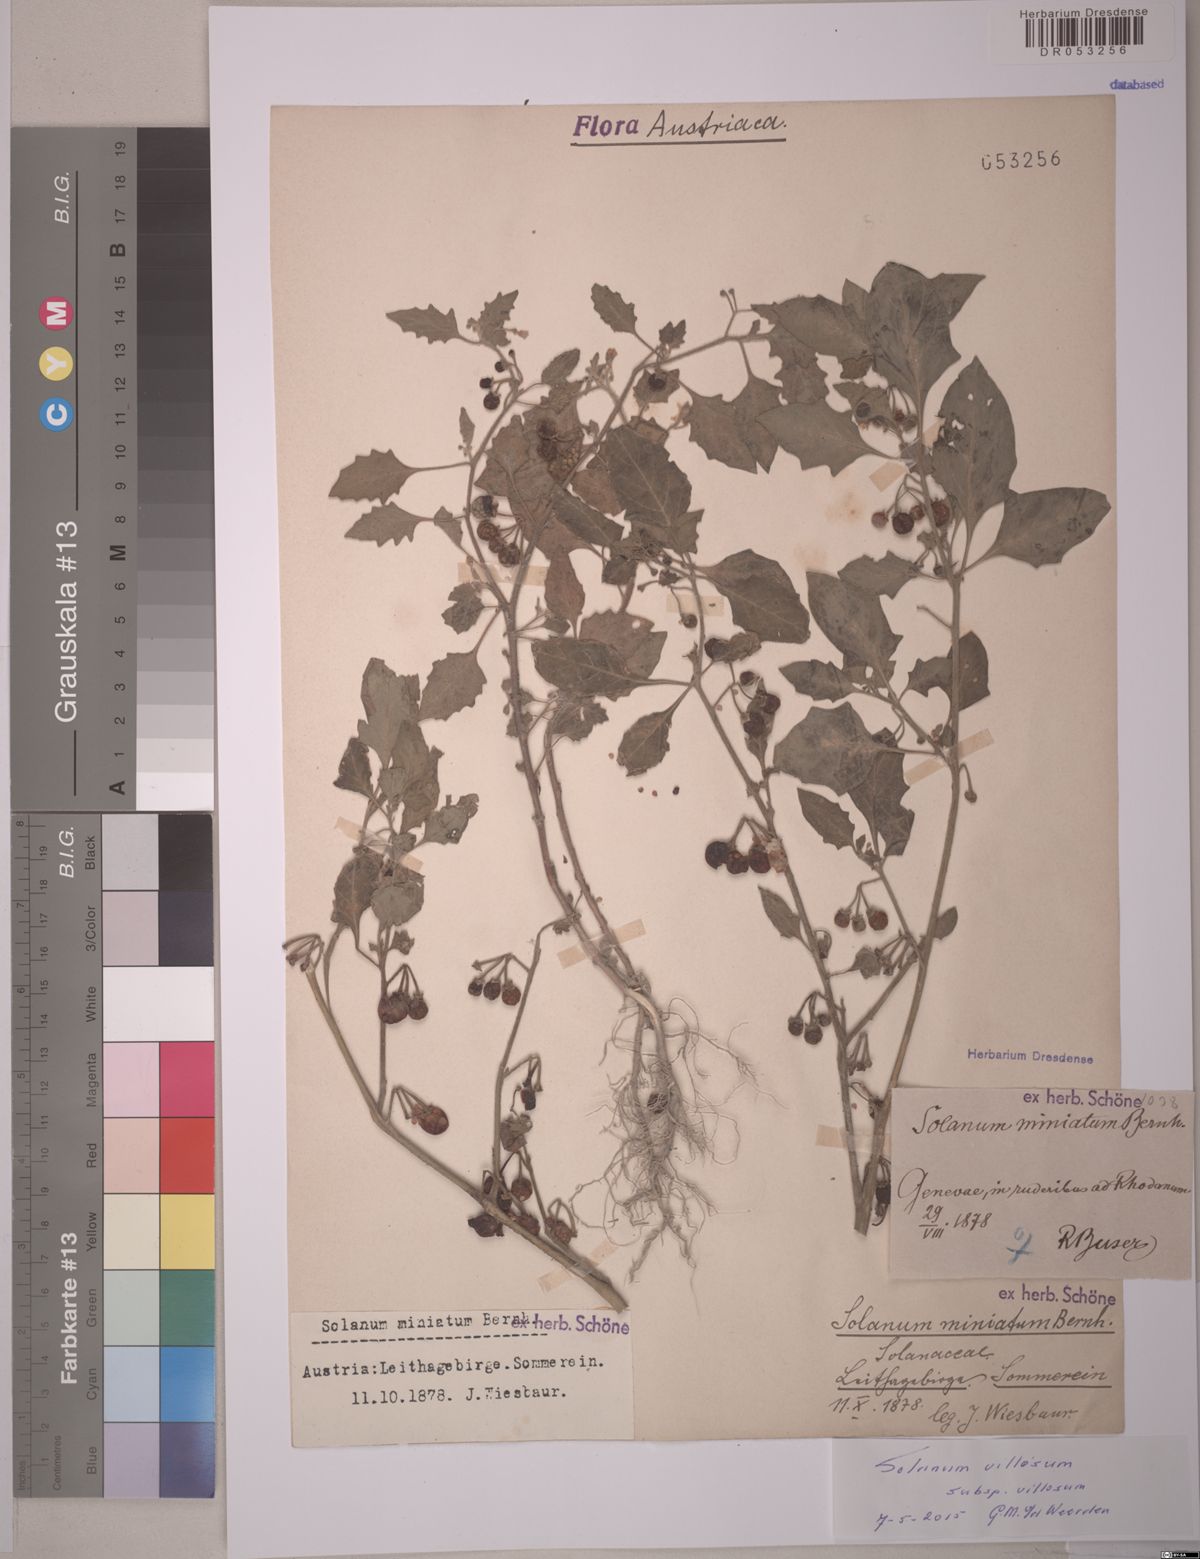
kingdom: Plantae
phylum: Tracheophyta
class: Magnoliopsida
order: Solanales
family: Solanaceae
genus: Solanum
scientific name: Solanum villosum
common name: Red nightshade
